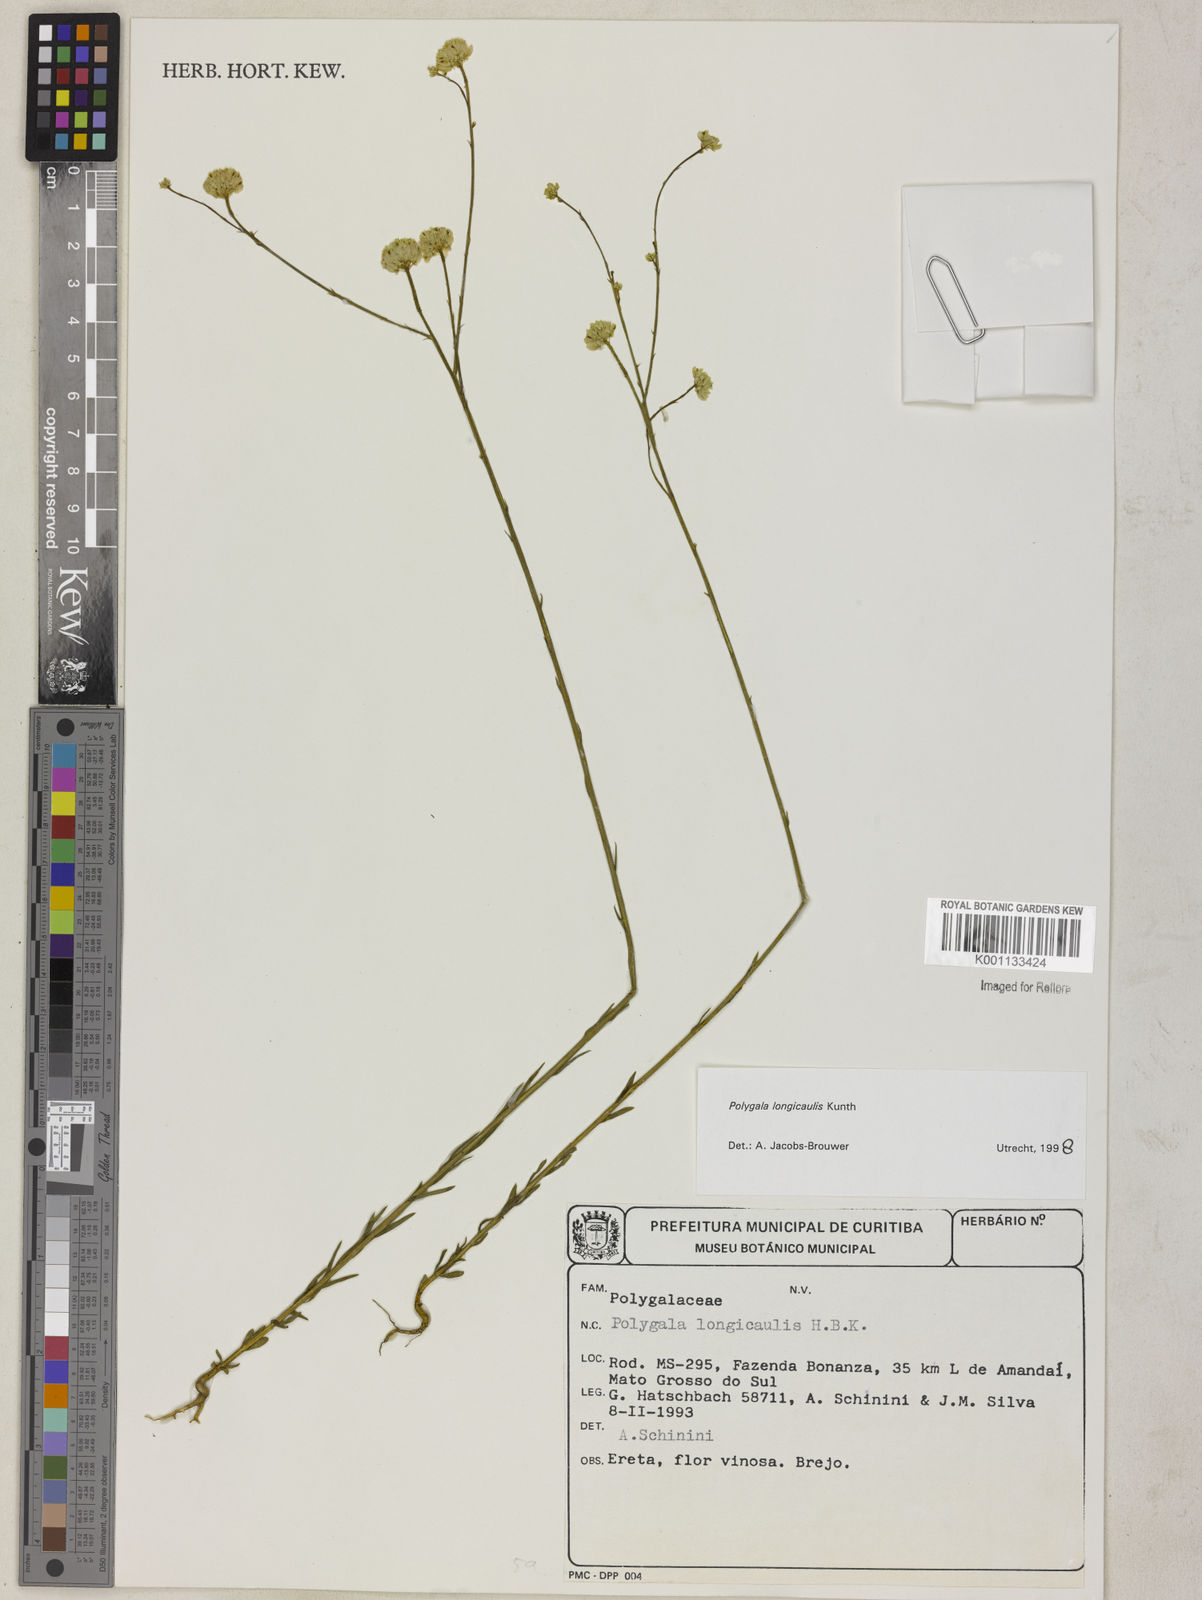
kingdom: Plantae
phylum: Tracheophyta
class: Magnoliopsida
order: Fabales
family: Polygalaceae
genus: Polygala
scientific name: Polygala longicaulis
